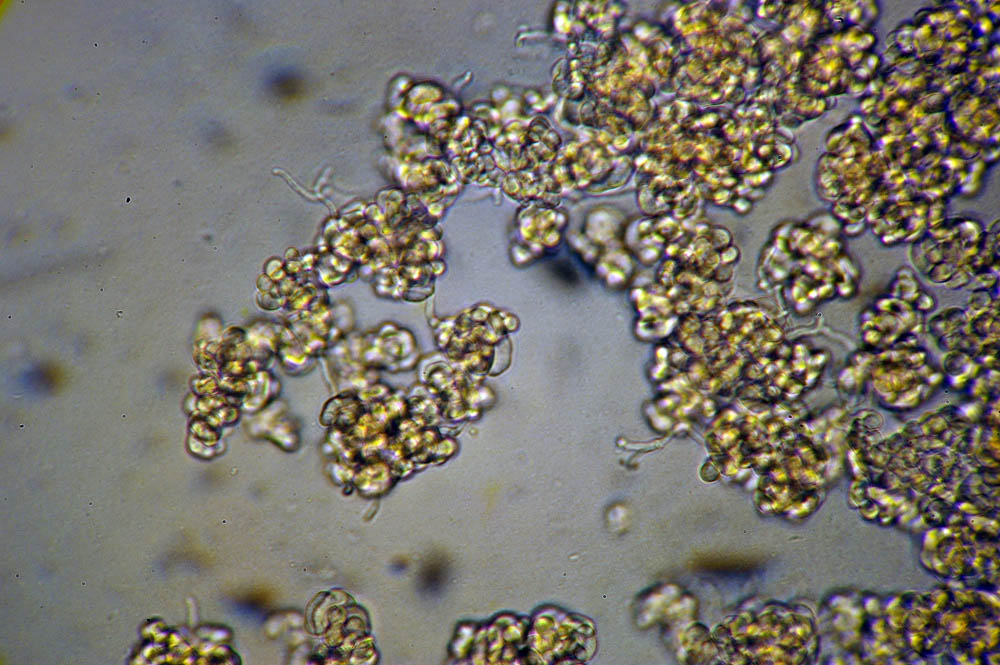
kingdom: Fungi
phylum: Ascomycota
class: Sordariomycetes
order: Hypocreales
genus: Illosporiopsis
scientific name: Illosporiopsis christiansenii
